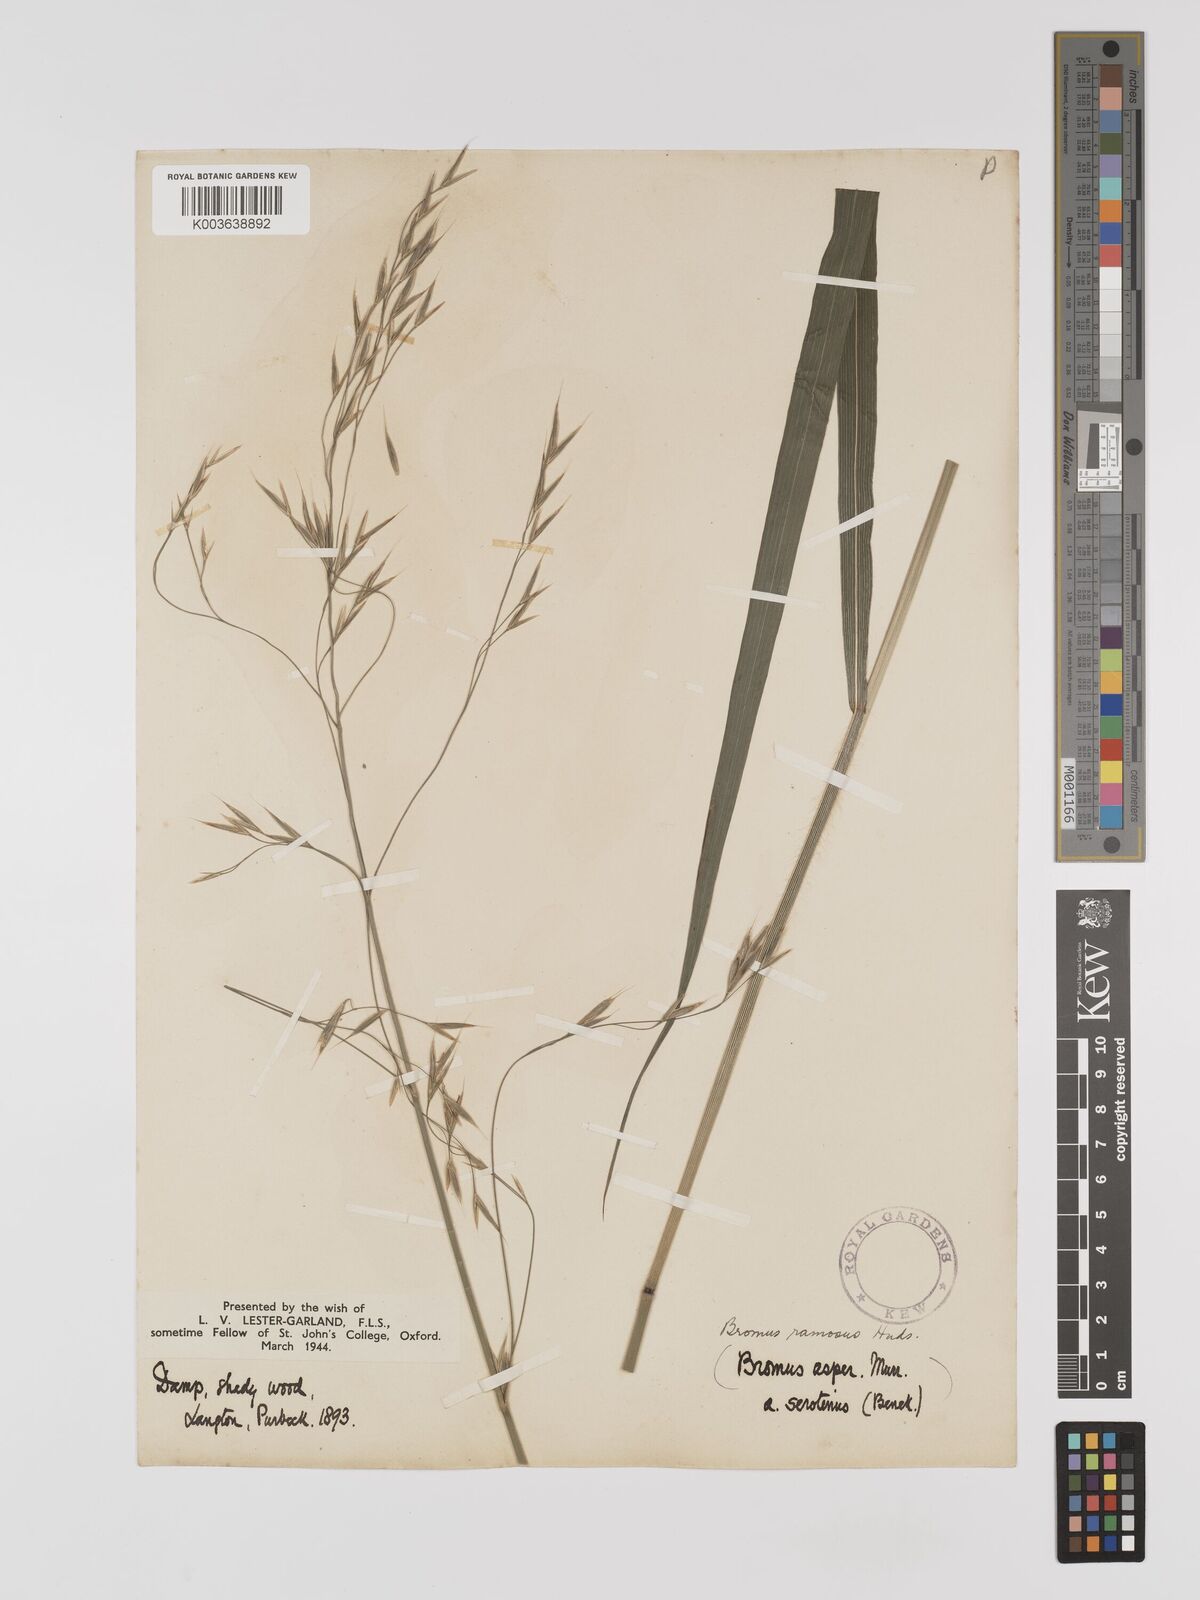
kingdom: Plantae
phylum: Tracheophyta
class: Liliopsida
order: Poales
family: Poaceae
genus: Brachypodium
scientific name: Brachypodium retusum
